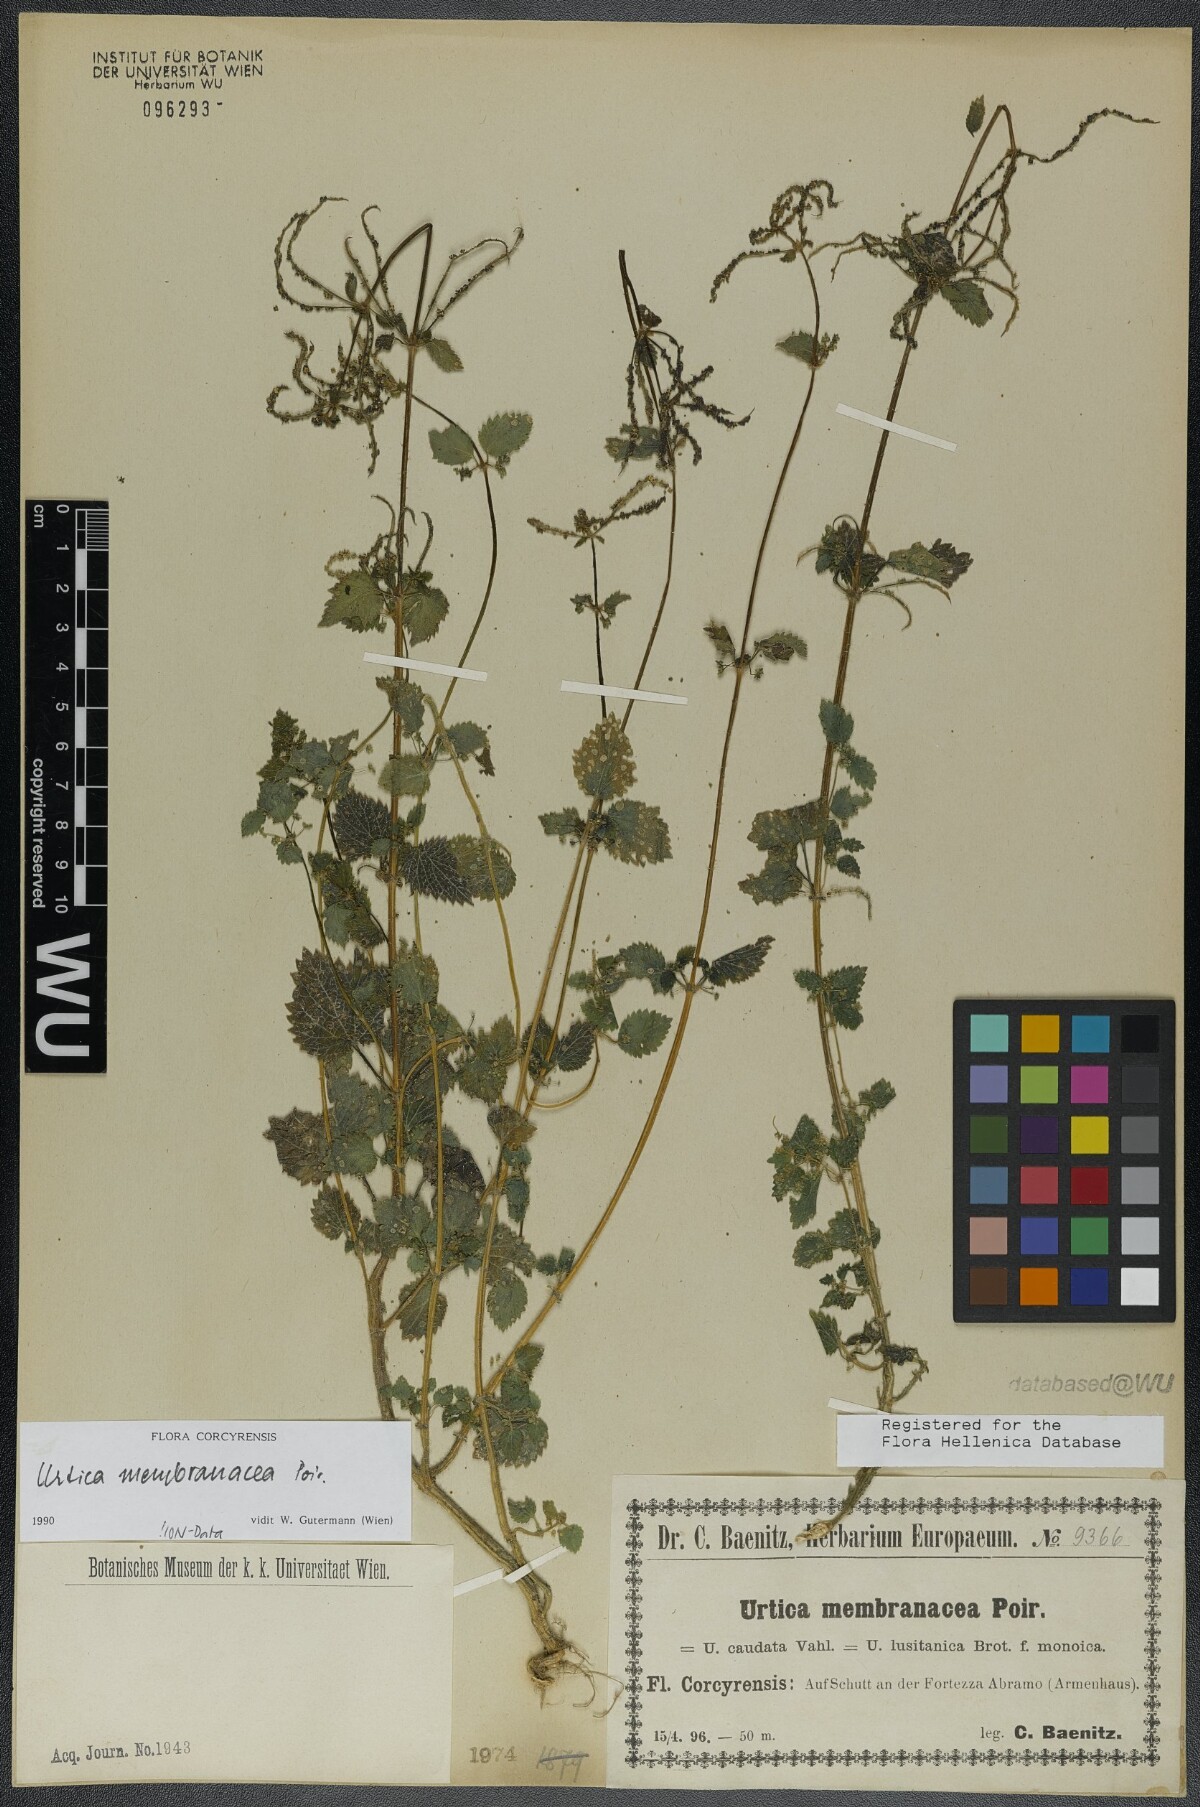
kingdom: Plantae
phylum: Tracheophyta
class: Magnoliopsida
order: Rosales
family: Urticaceae
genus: Urtica
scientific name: Urtica membranacea
